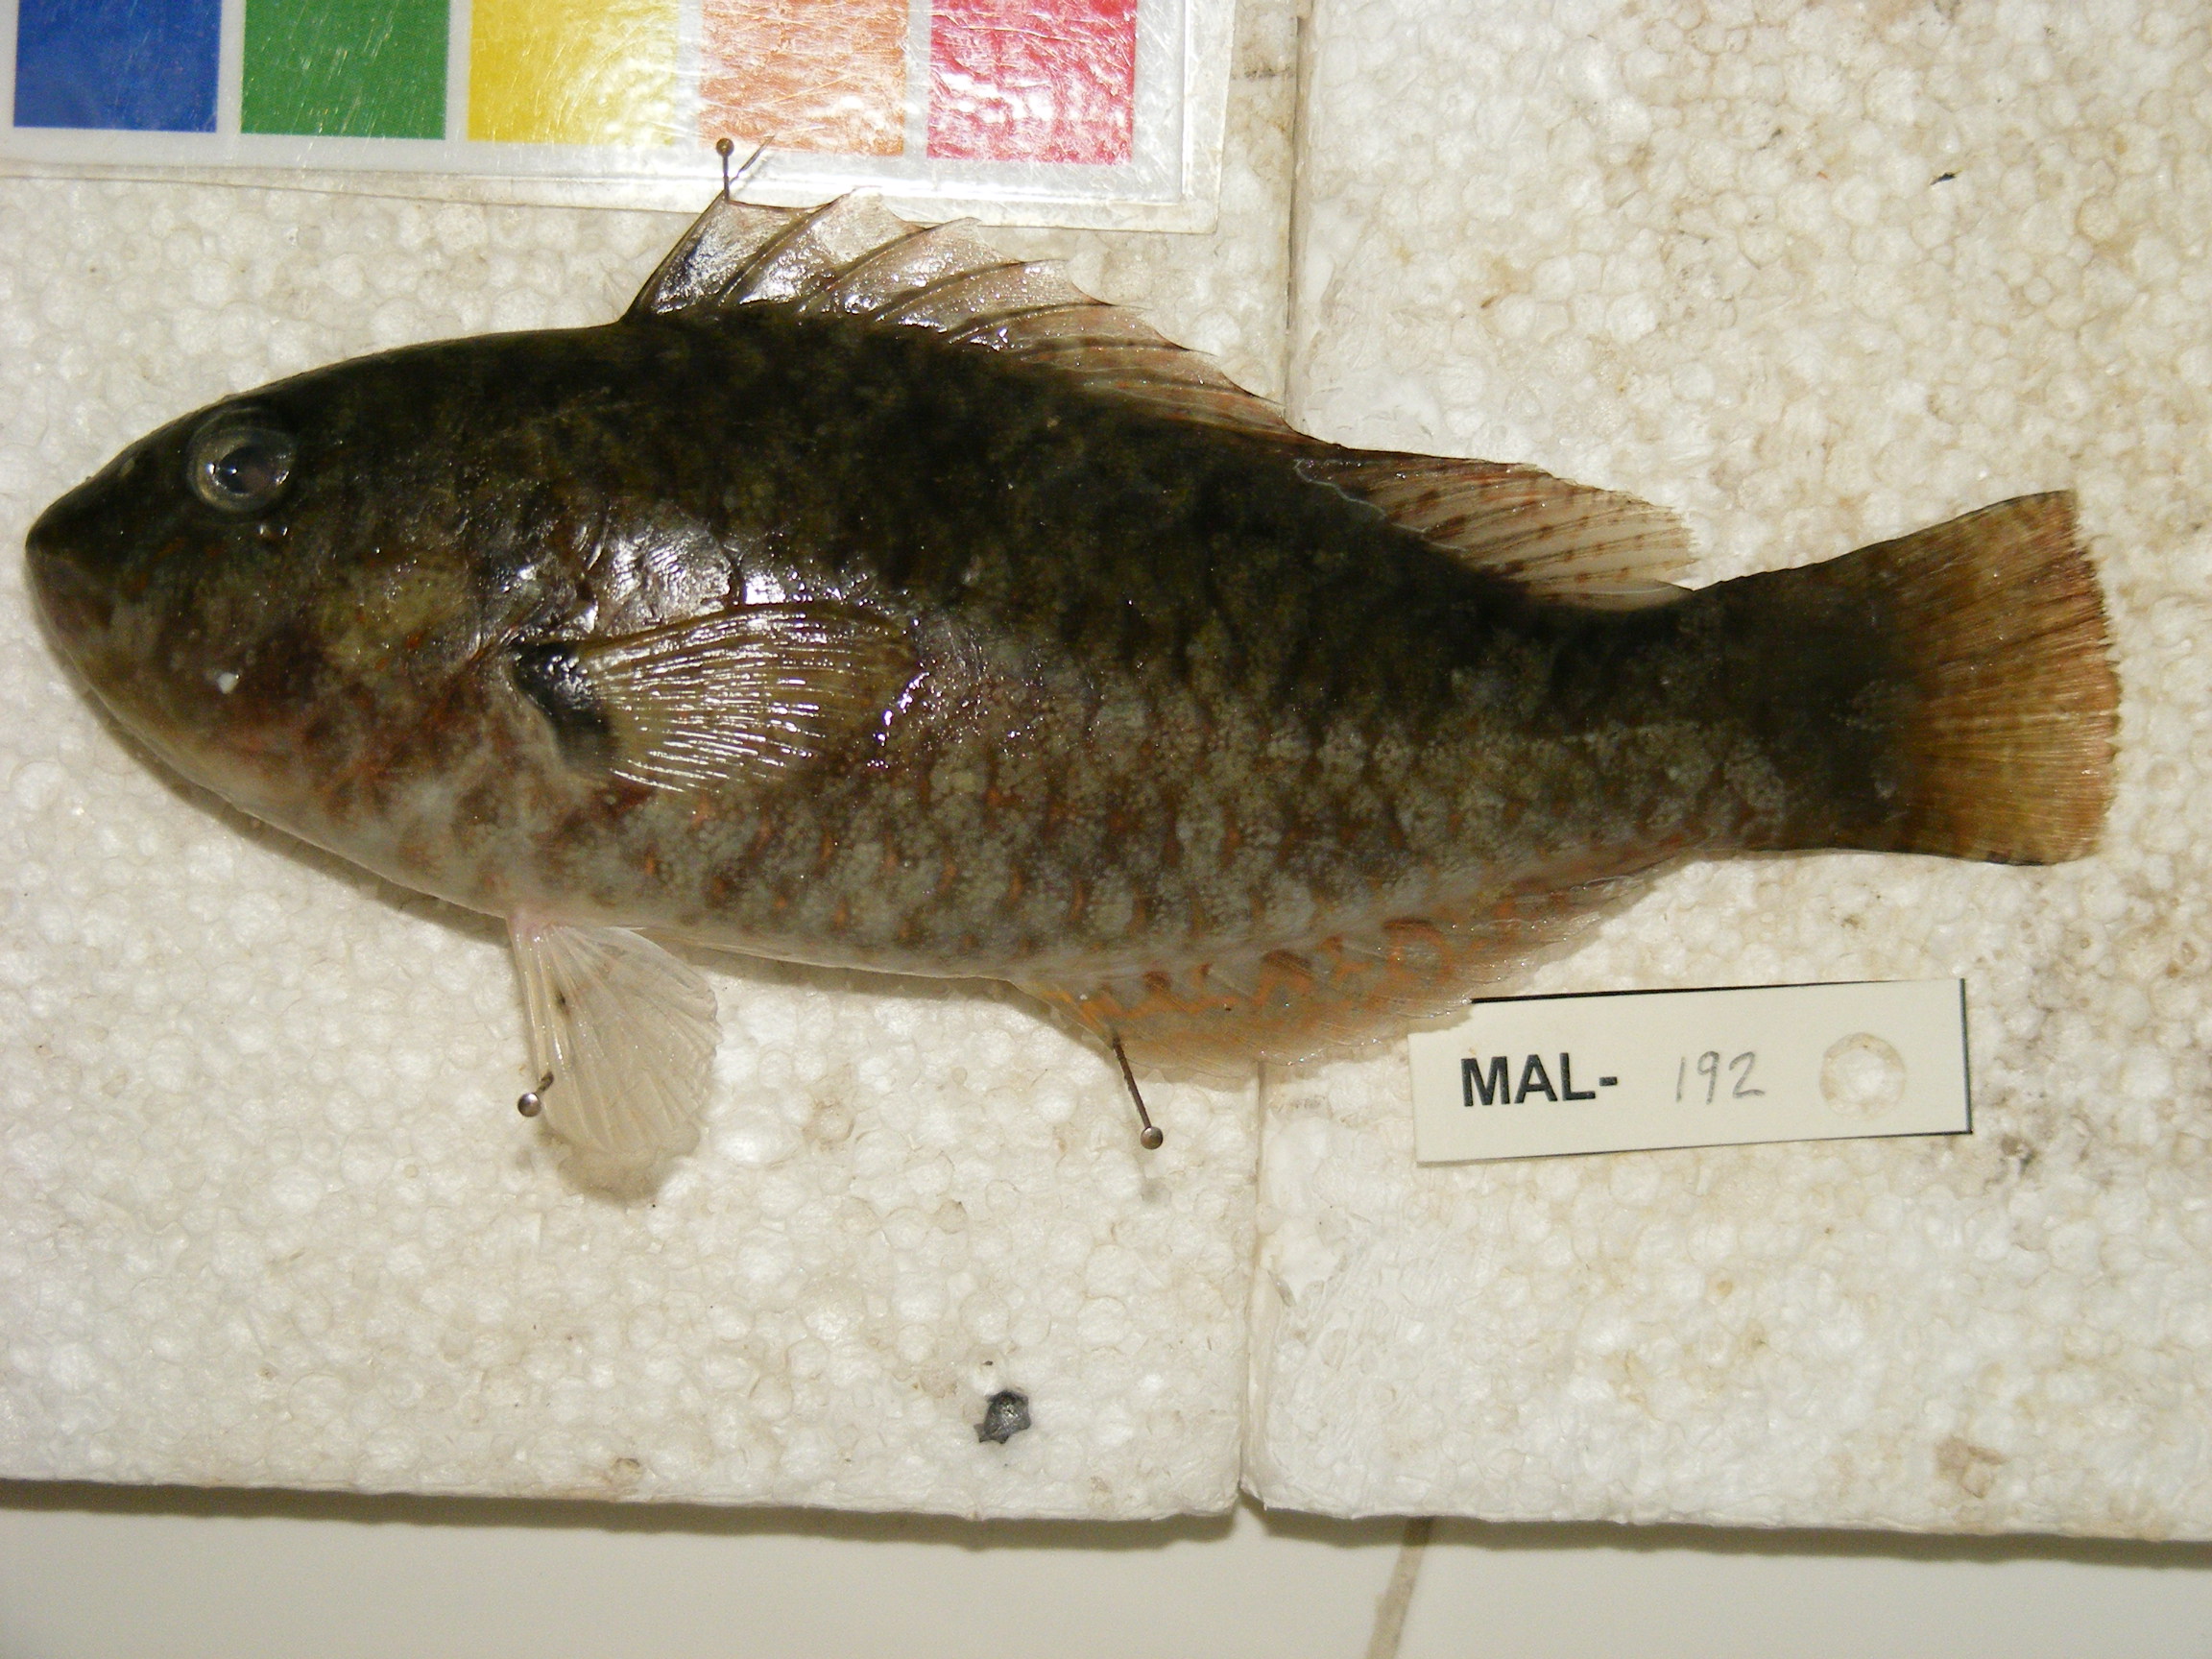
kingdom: Animalia
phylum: Chordata
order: Perciformes
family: Scaridae
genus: Calotomus
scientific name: Calotomus spinidens
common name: Raggedtooth parrotfish
